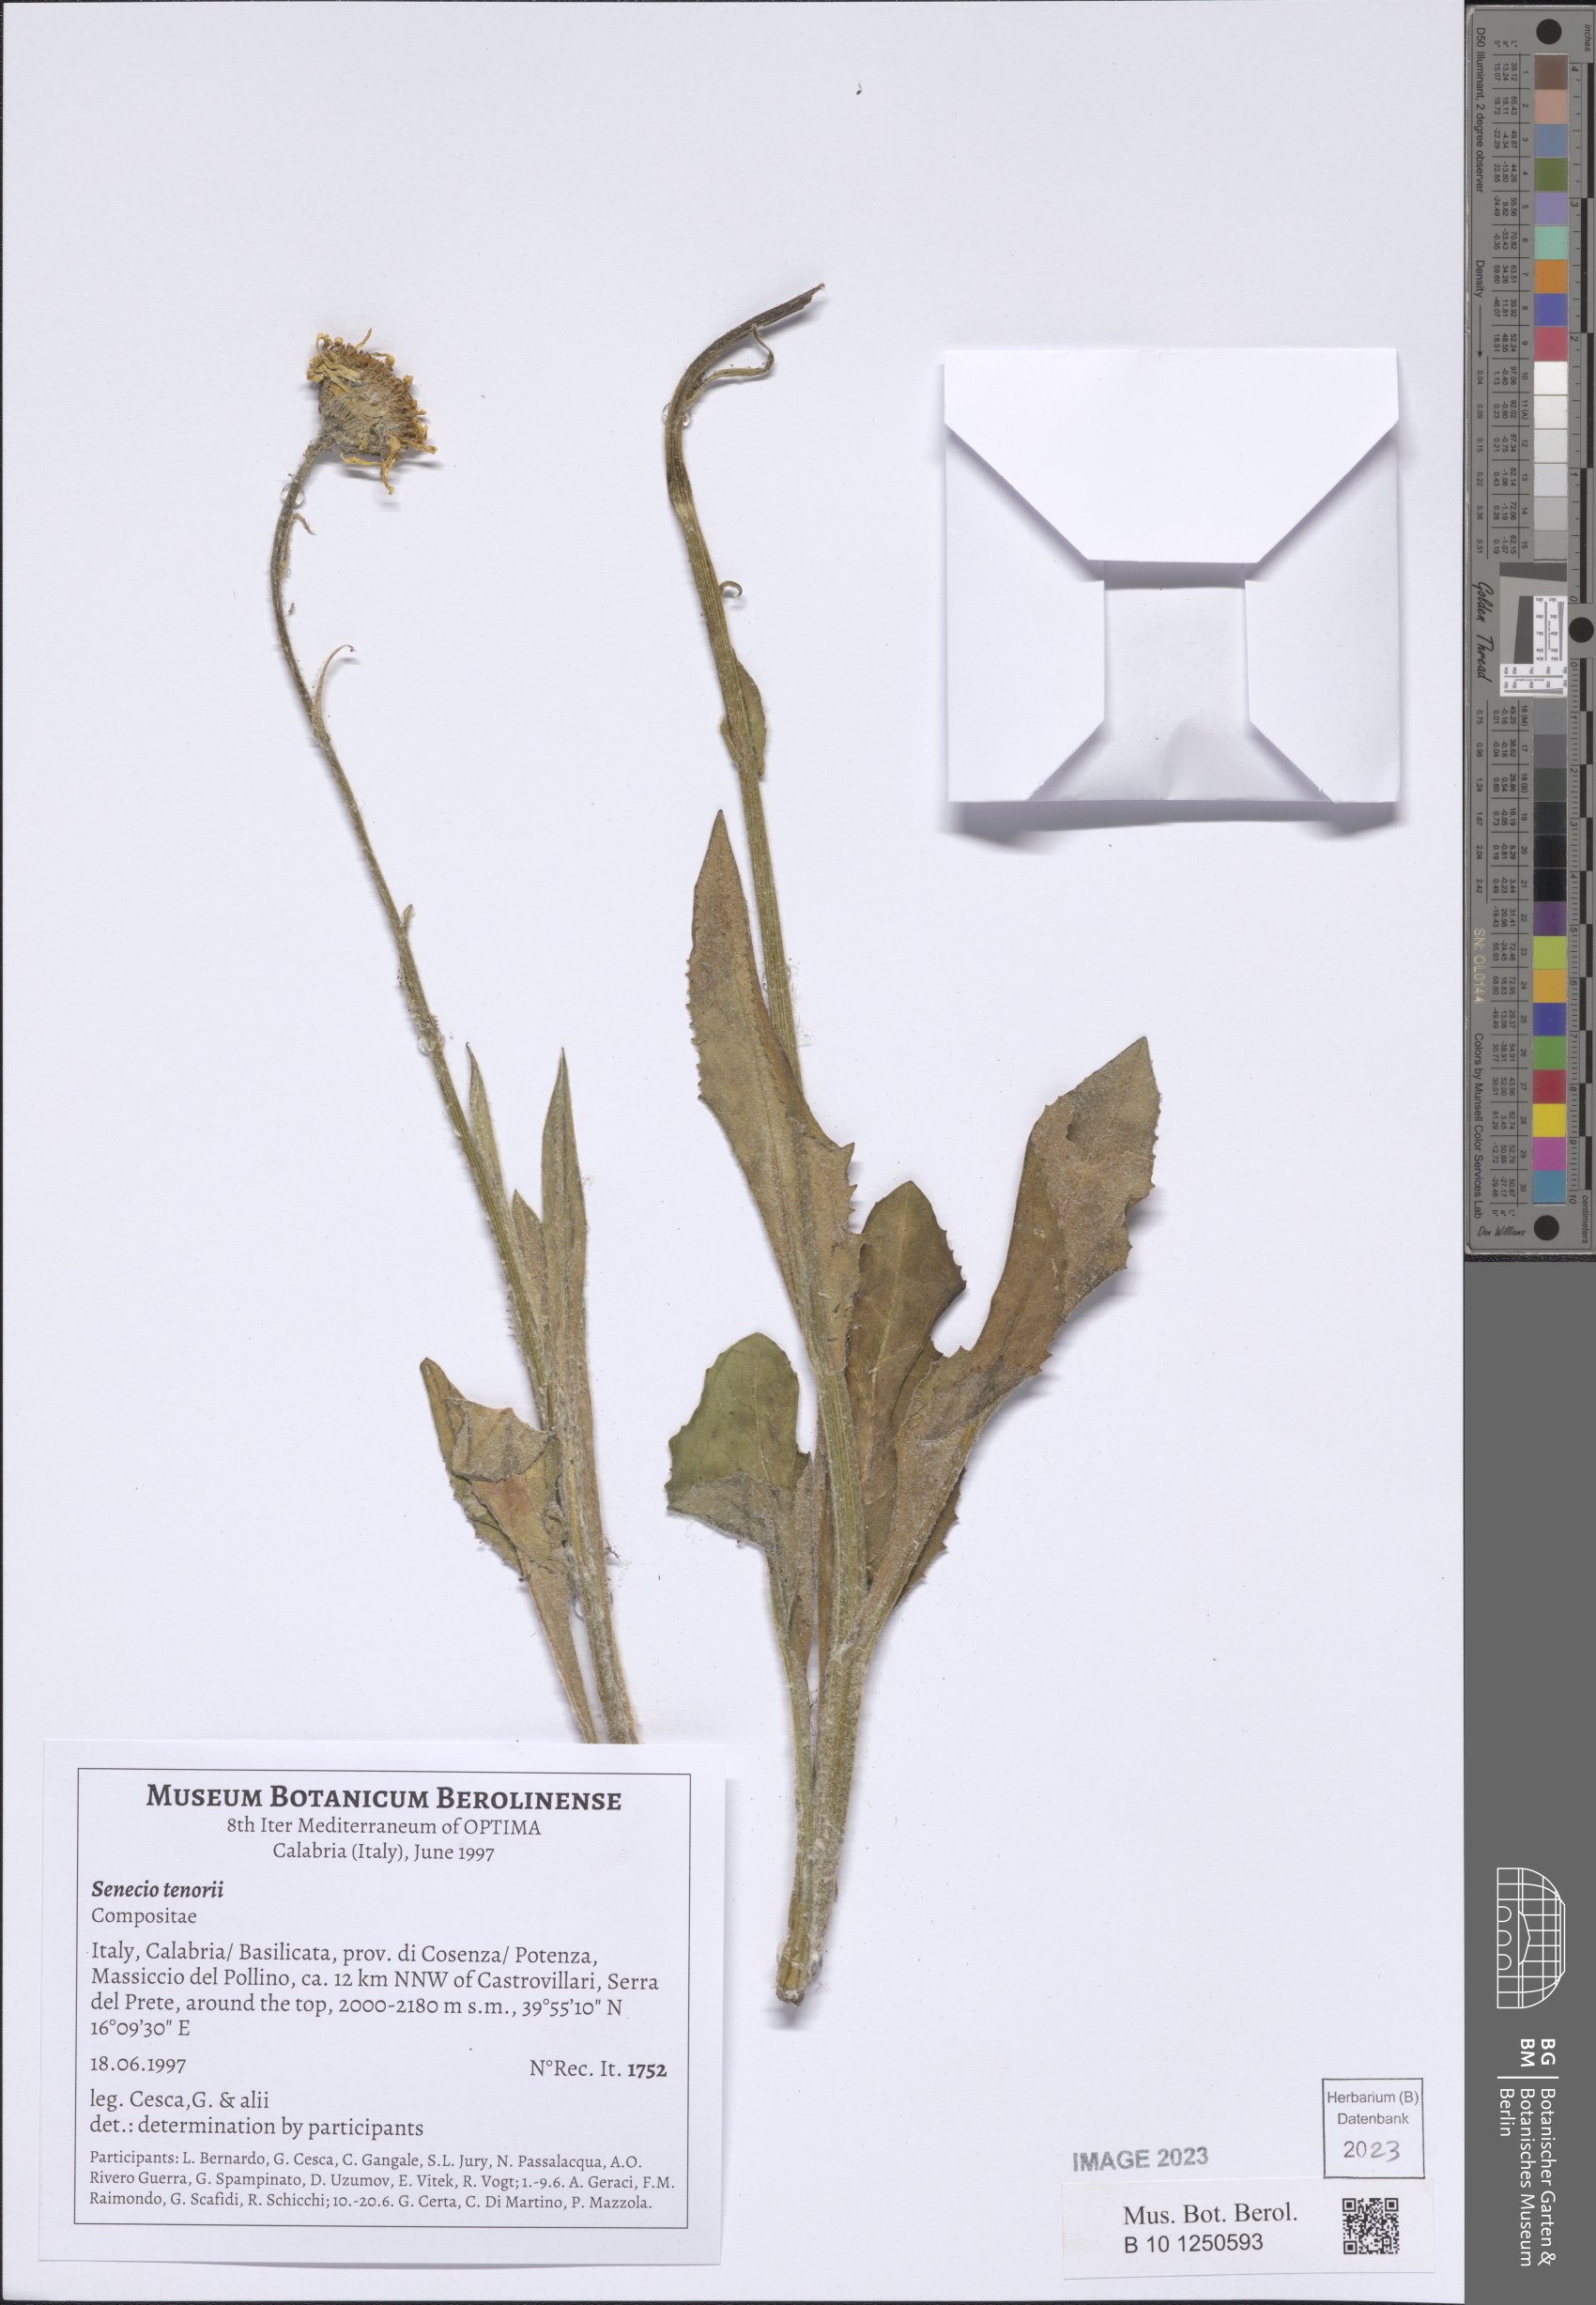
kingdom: Plantae
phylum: Tracheophyta
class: Magnoliopsida
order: Asterales
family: Asteraceae
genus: Senecio
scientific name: Senecio scopolii
